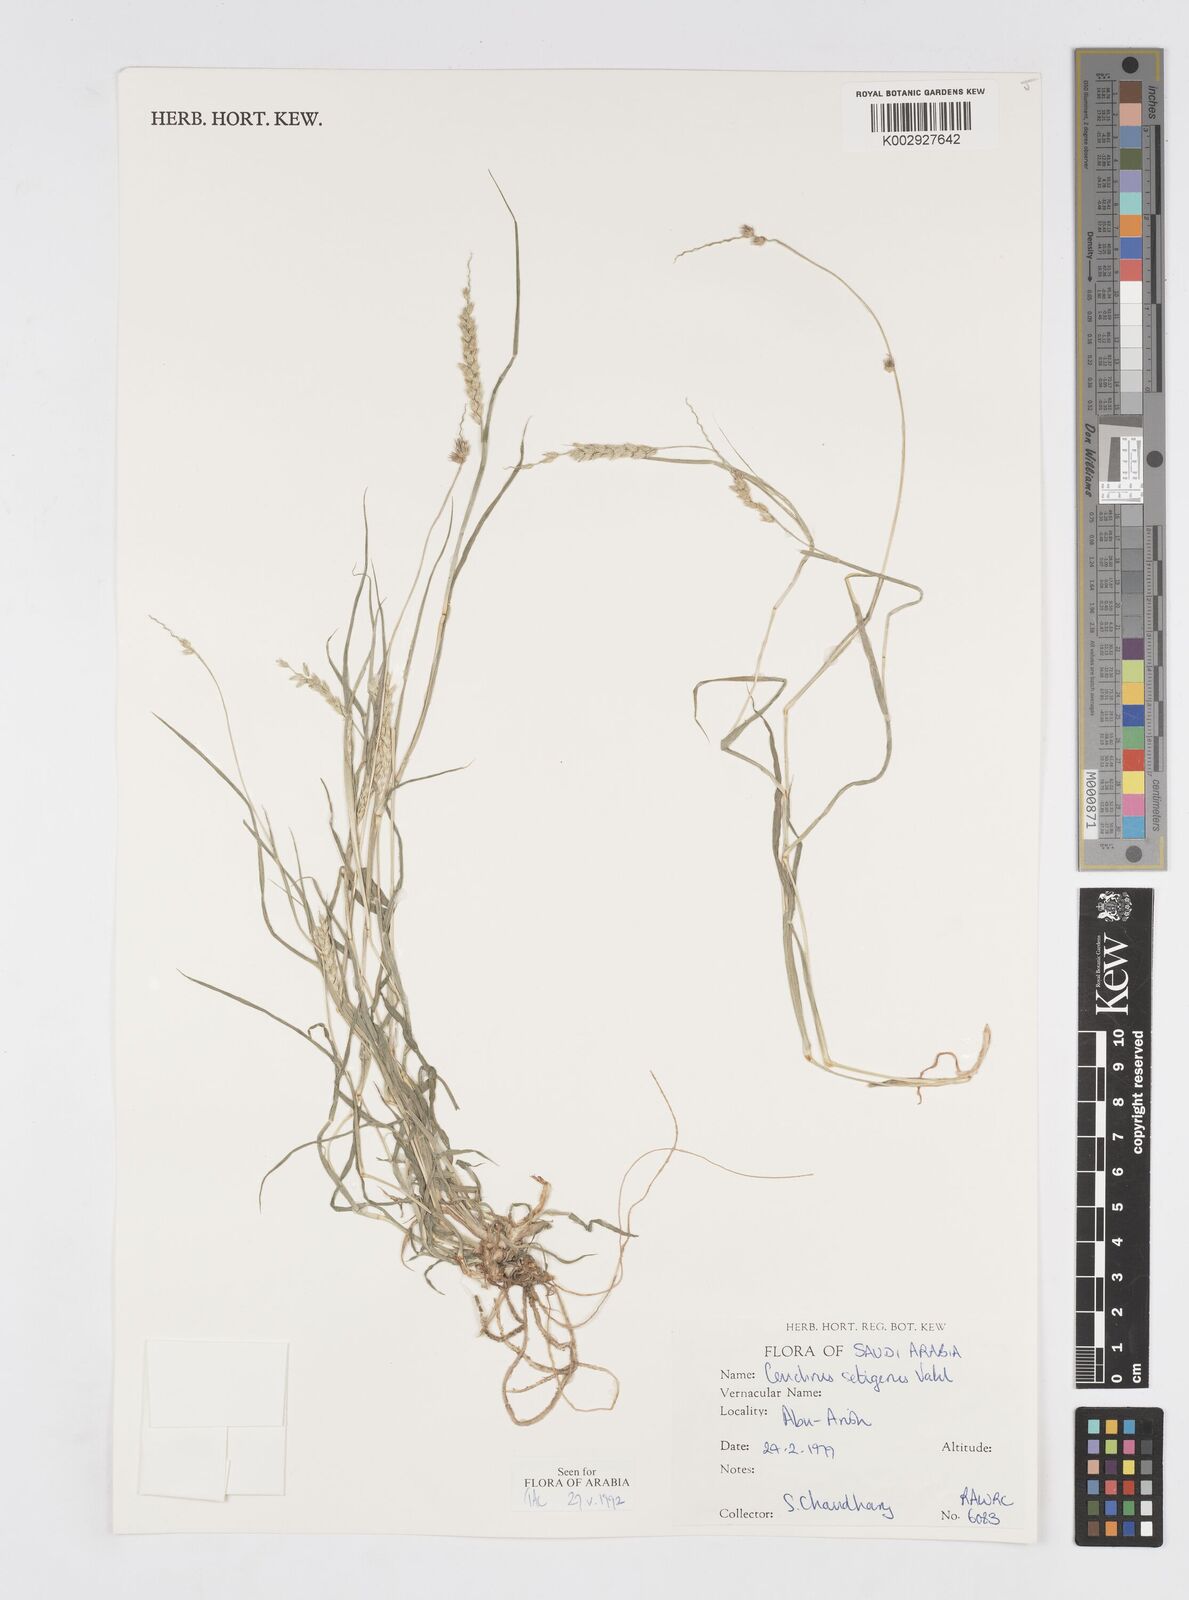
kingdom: Plantae
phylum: Tracheophyta
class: Liliopsida
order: Poales
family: Poaceae
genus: Cenchrus
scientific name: Cenchrus setigerus
